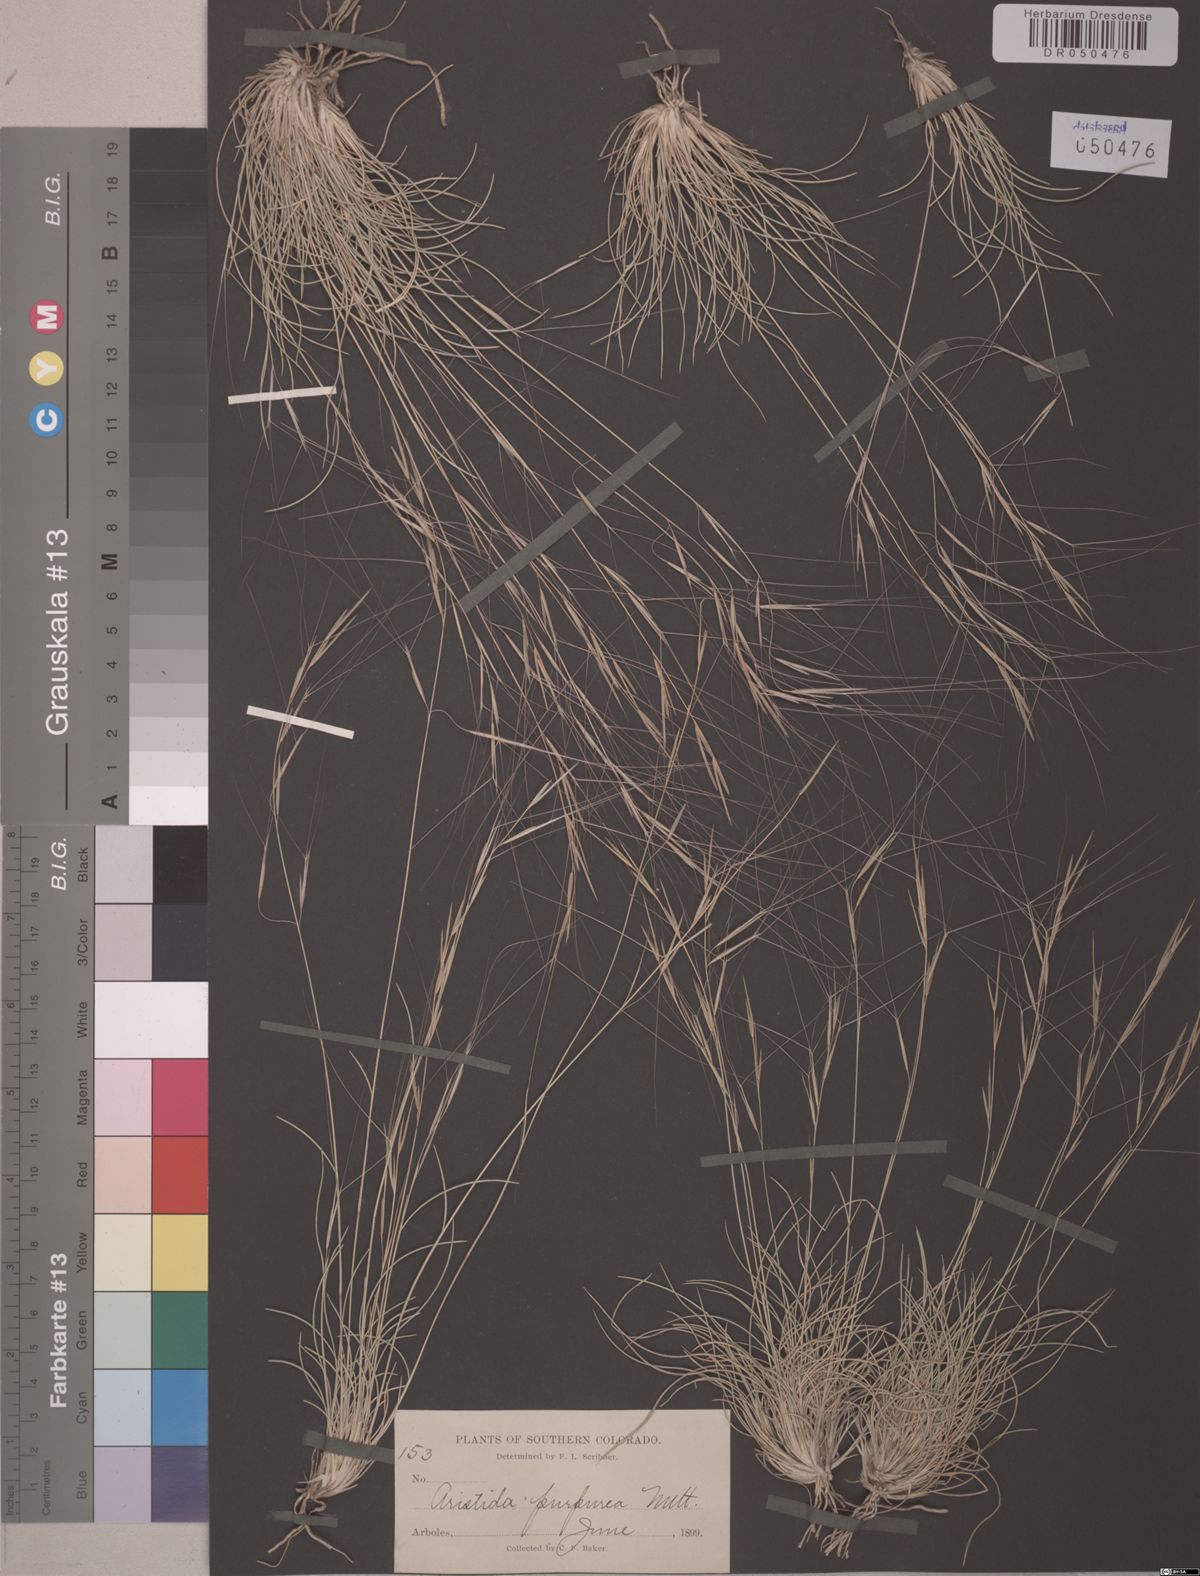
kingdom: Plantae
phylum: Tracheophyta
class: Liliopsida
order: Poales
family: Poaceae
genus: Aristida
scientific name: Aristida purpurea
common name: Purple threeawn
